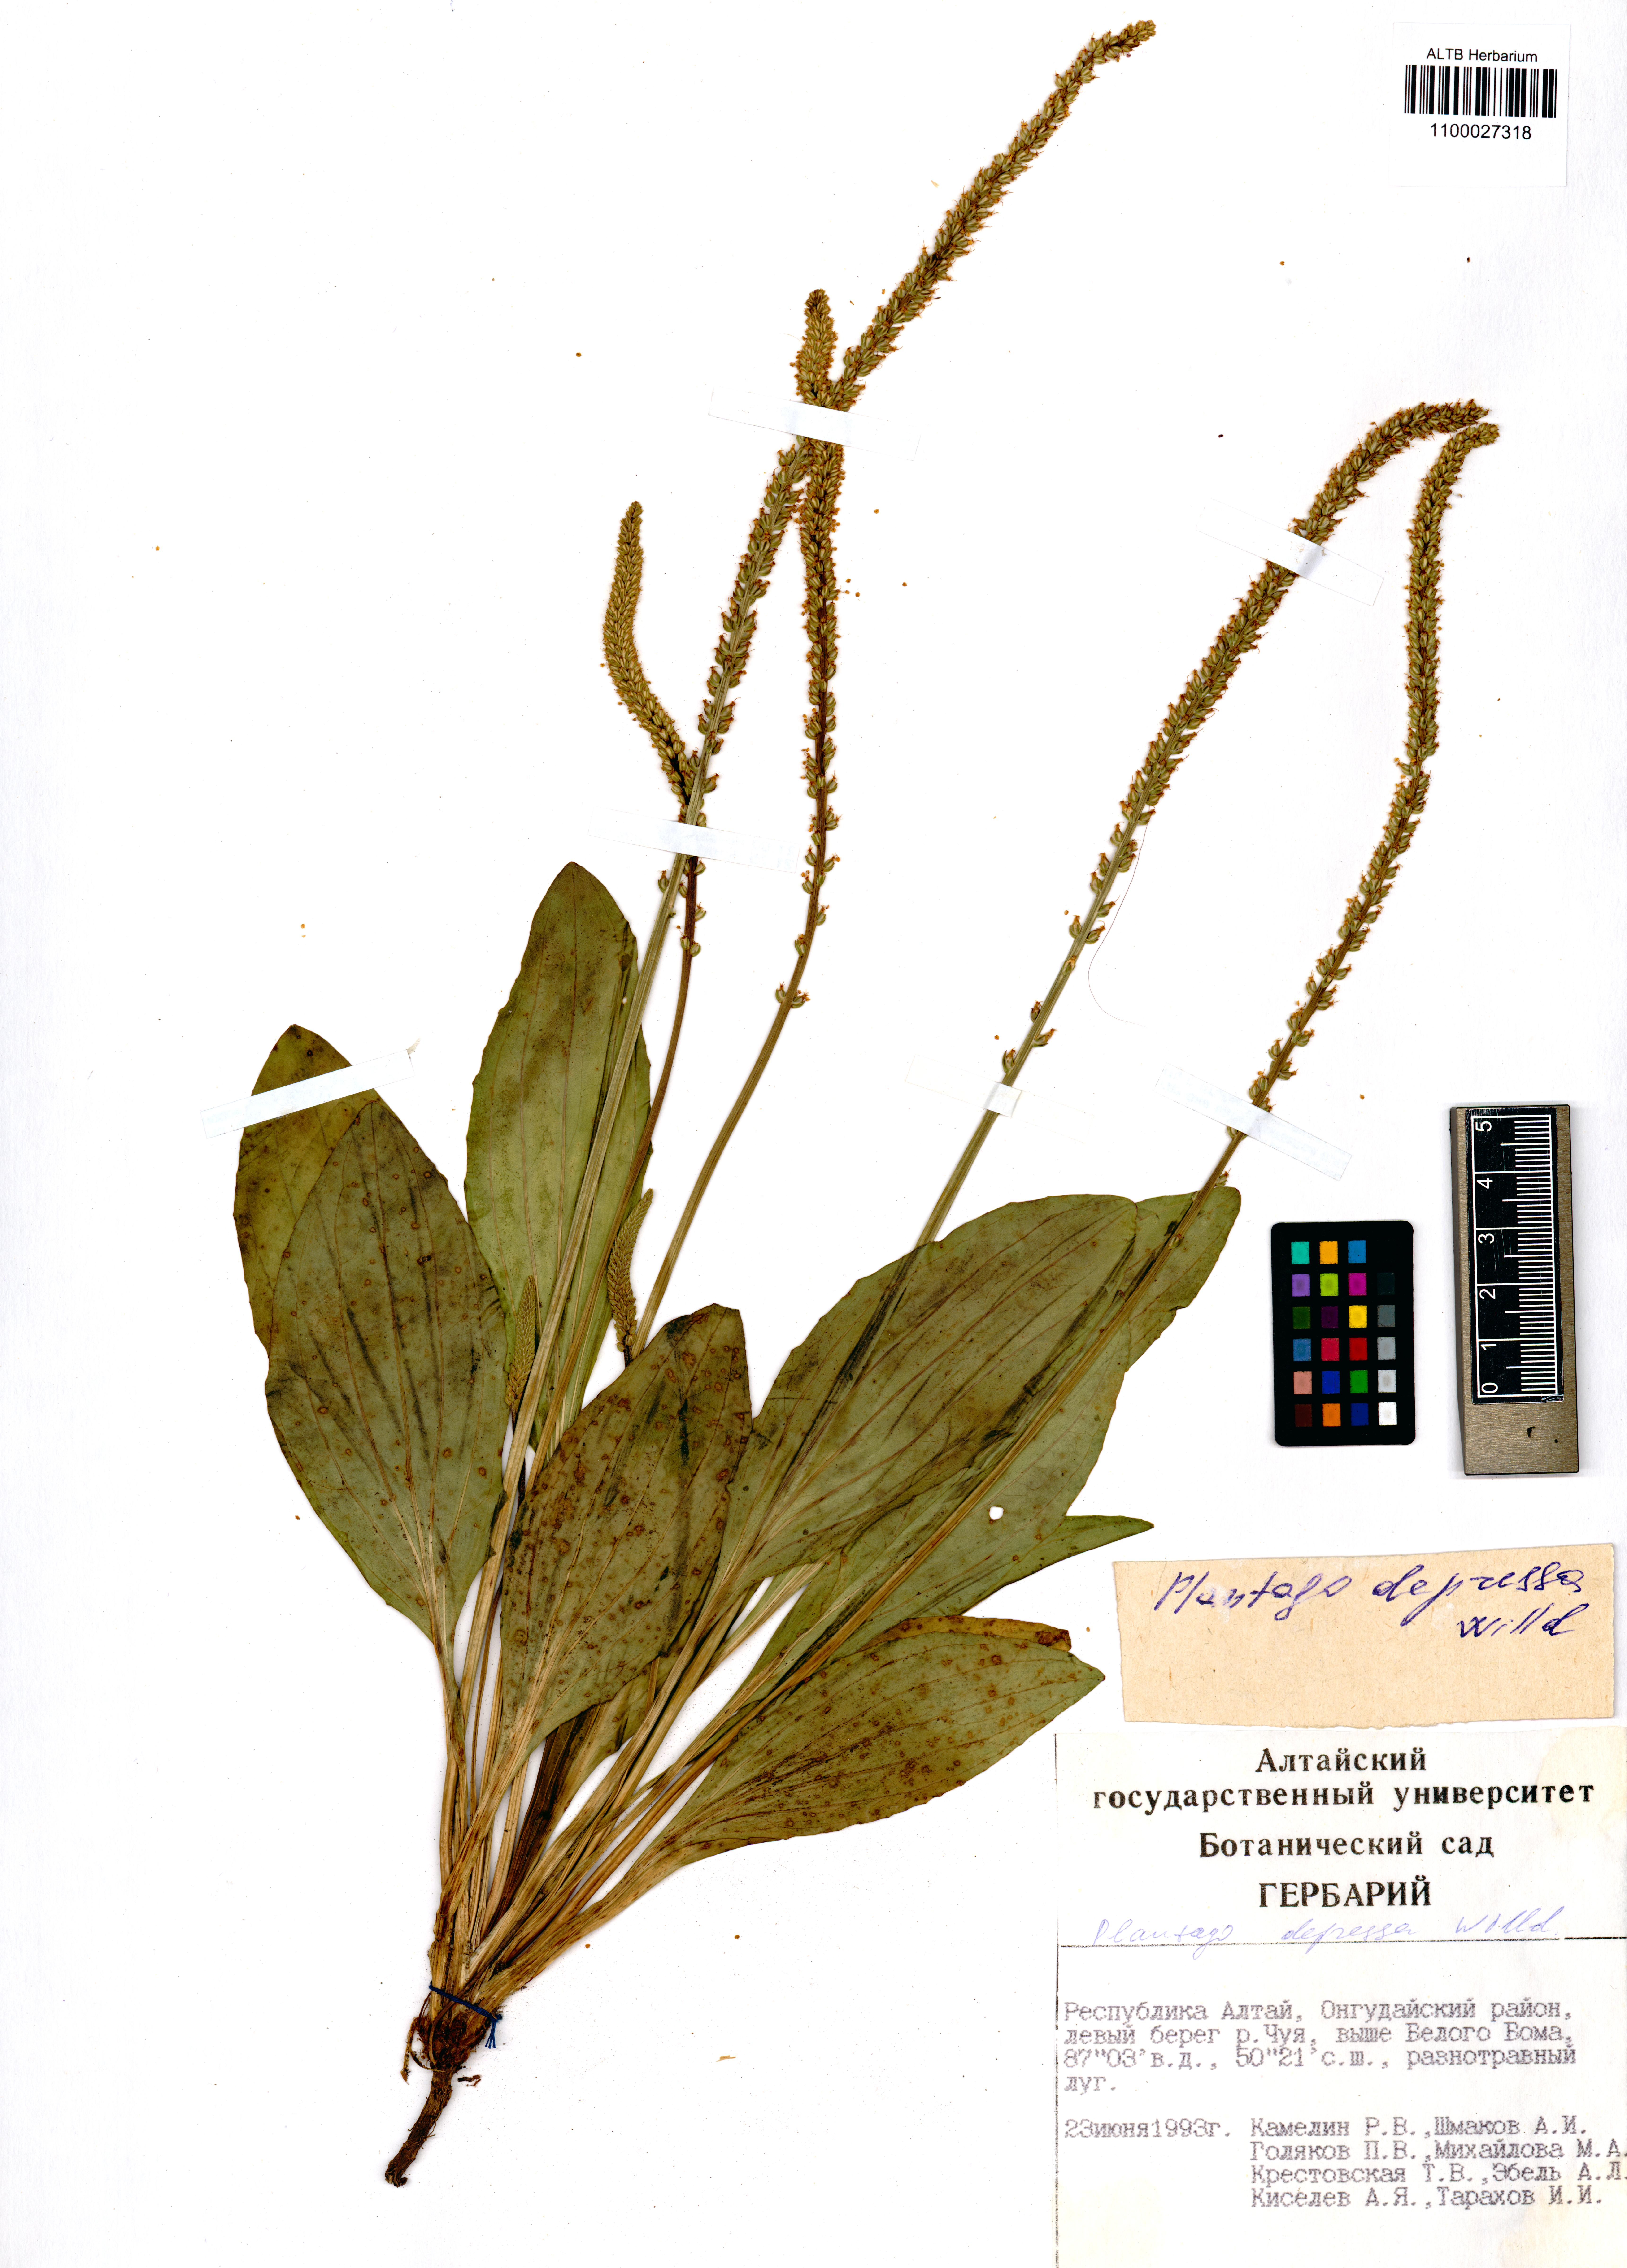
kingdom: Plantae
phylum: Tracheophyta
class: Magnoliopsida
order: Lamiales
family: Plantaginaceae
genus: Plantago
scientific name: Plantago depressa
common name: Depressed plantain
